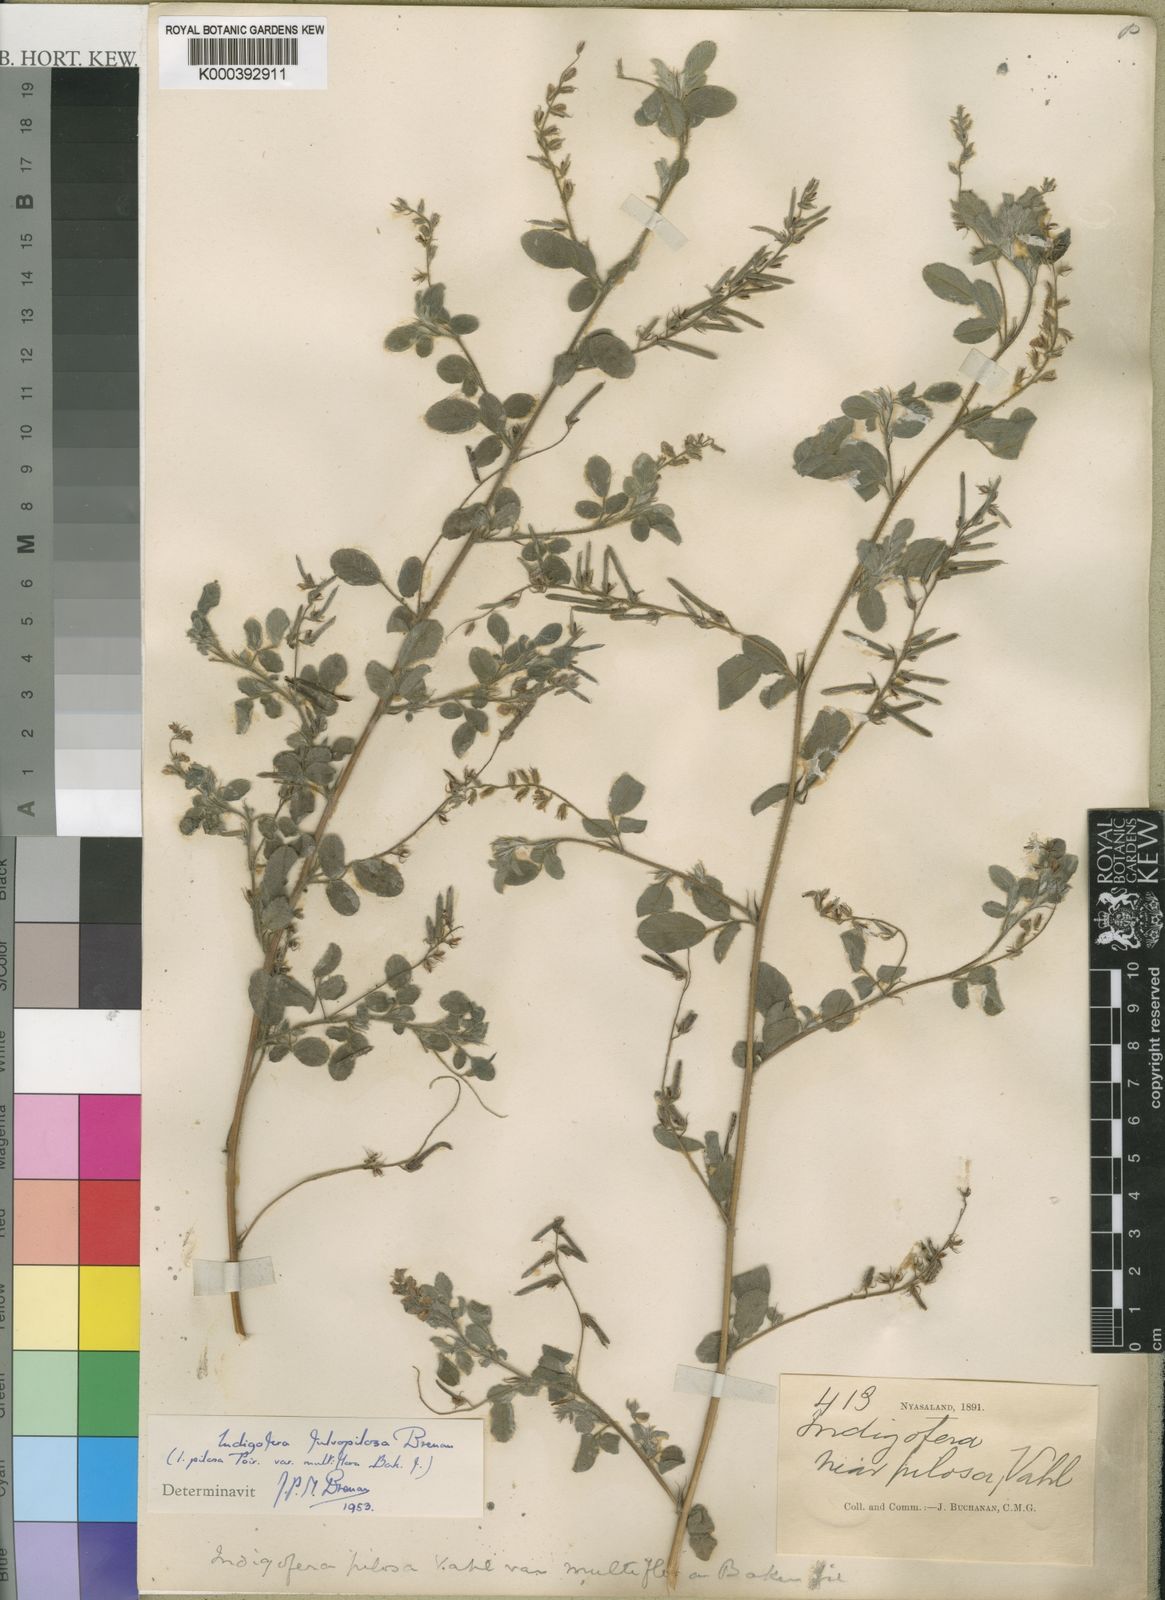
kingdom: Plantae
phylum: Tracheophyta
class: Magnoliopsida
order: Fabales
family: Fabaceae
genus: Indigofera
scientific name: Indigofera pilosa
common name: Softhairy indigo
